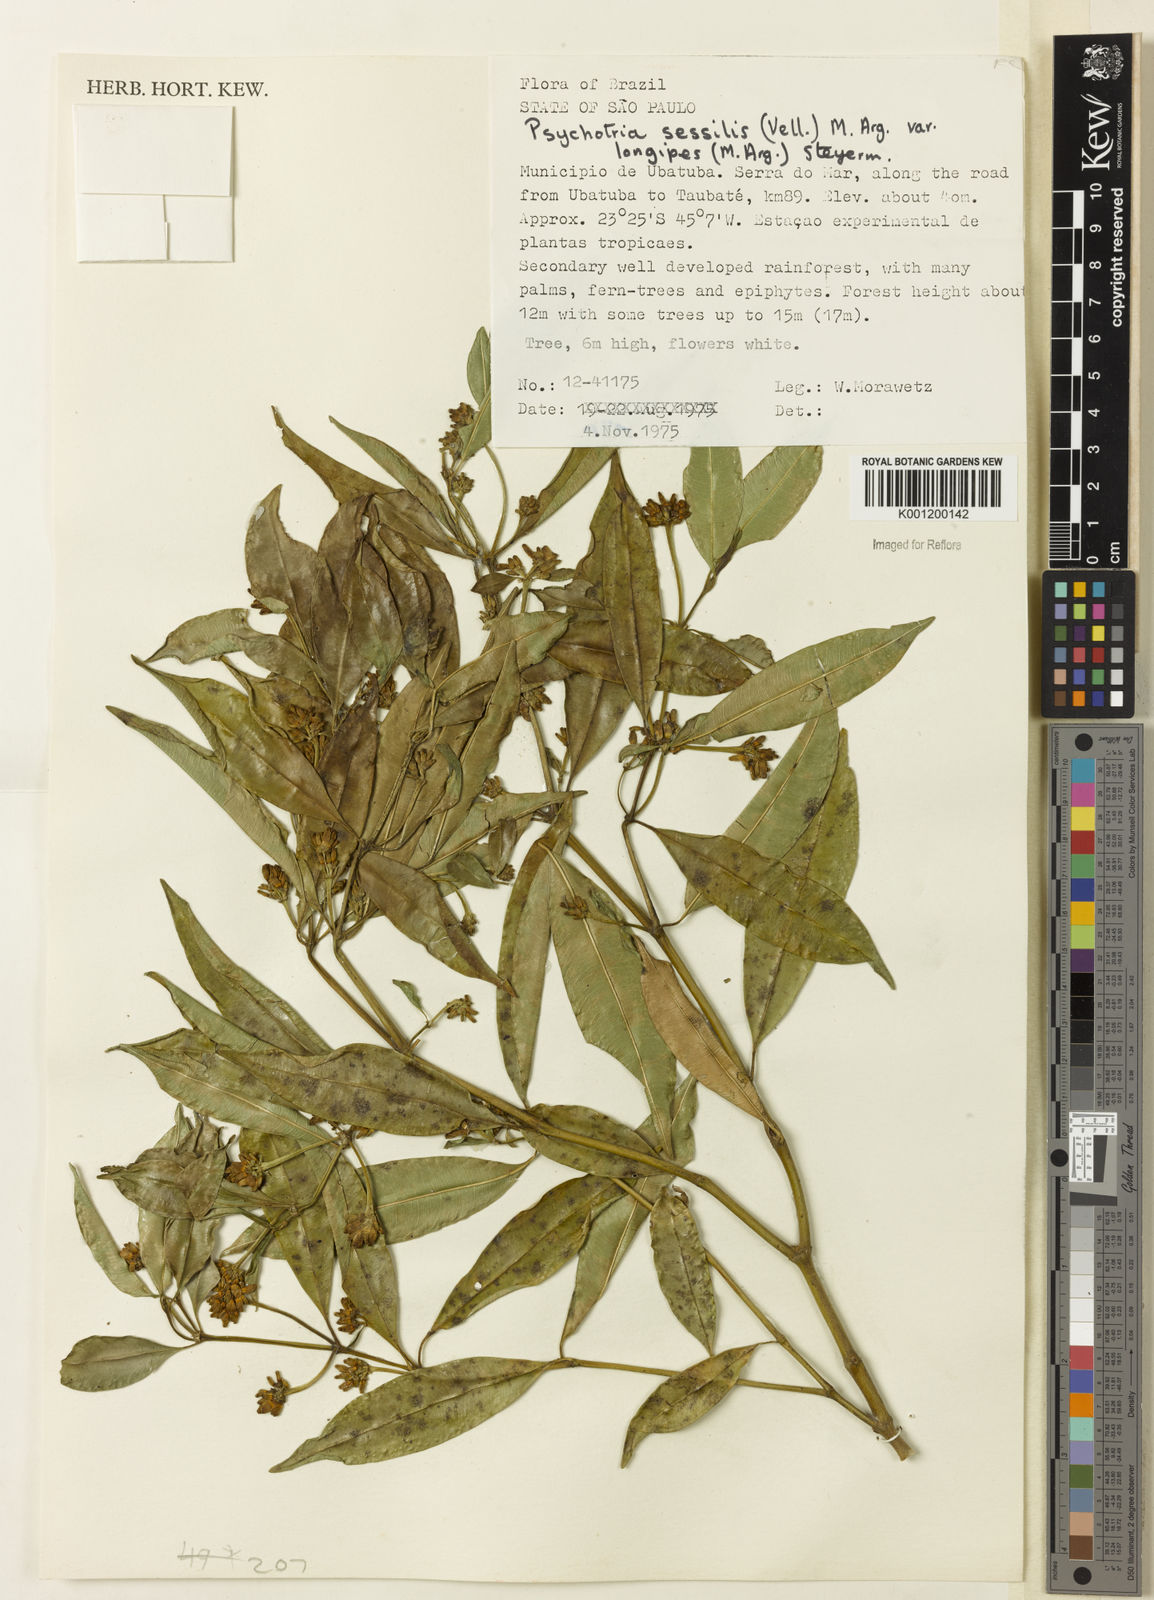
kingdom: Plantae
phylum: Tracheophyta
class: Magnoliopsida
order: Gentianales
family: Rubiaceae
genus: Palicourea
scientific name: Palicourea sessilis
